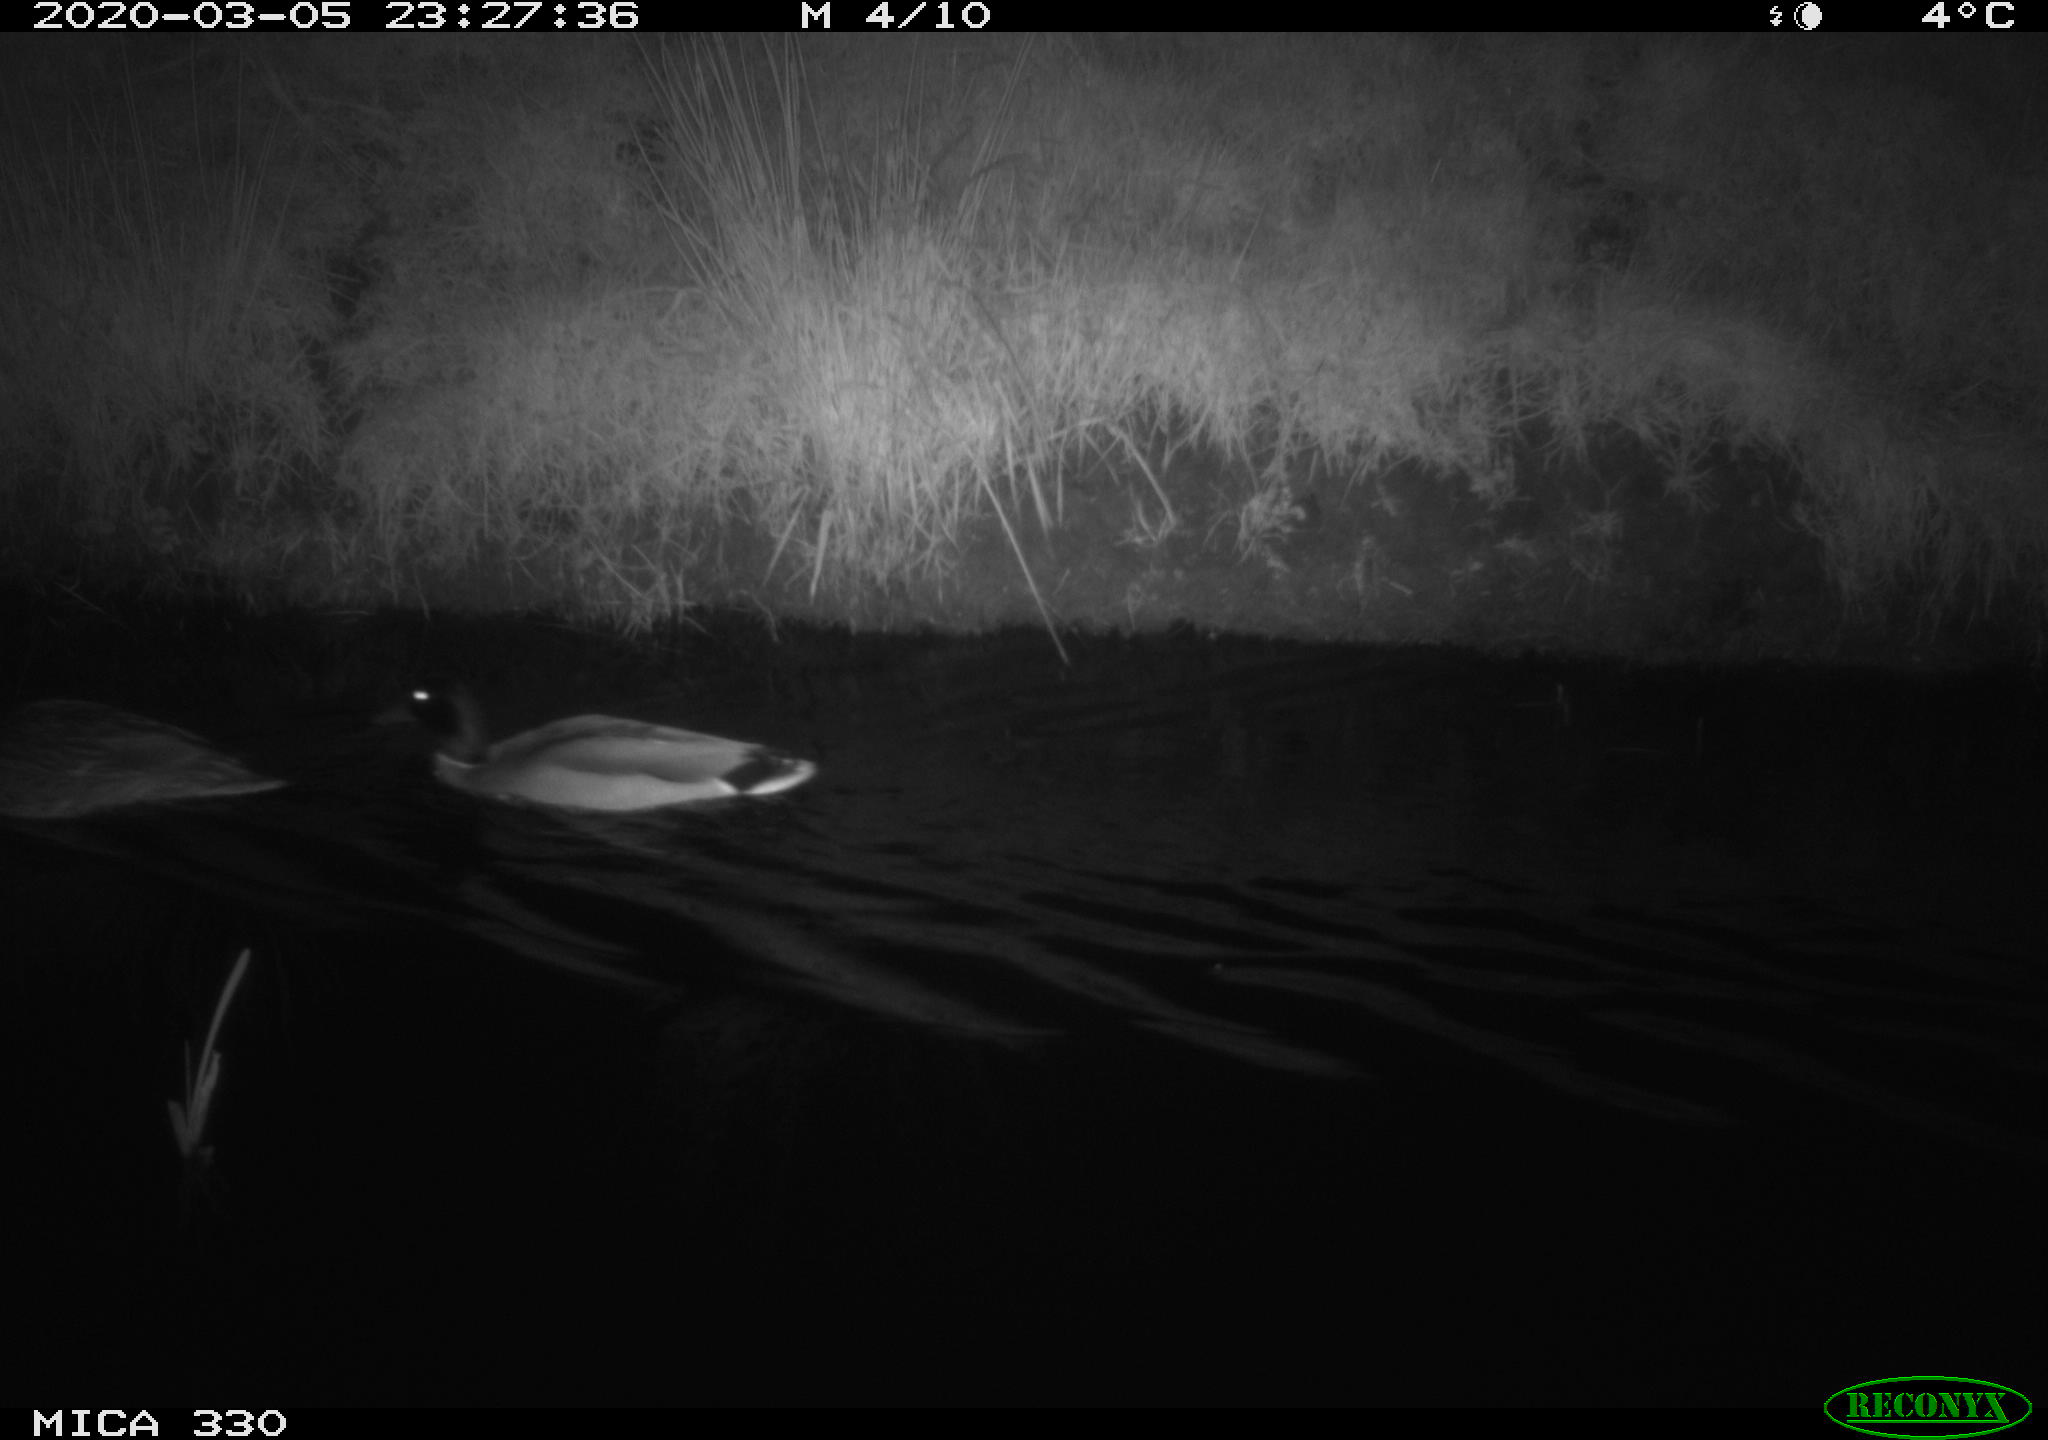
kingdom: Animalia
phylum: Chordata
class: Aves
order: Anseriformes
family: Anatidae
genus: Anas
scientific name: Anas platyrhynchos
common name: Mallard
